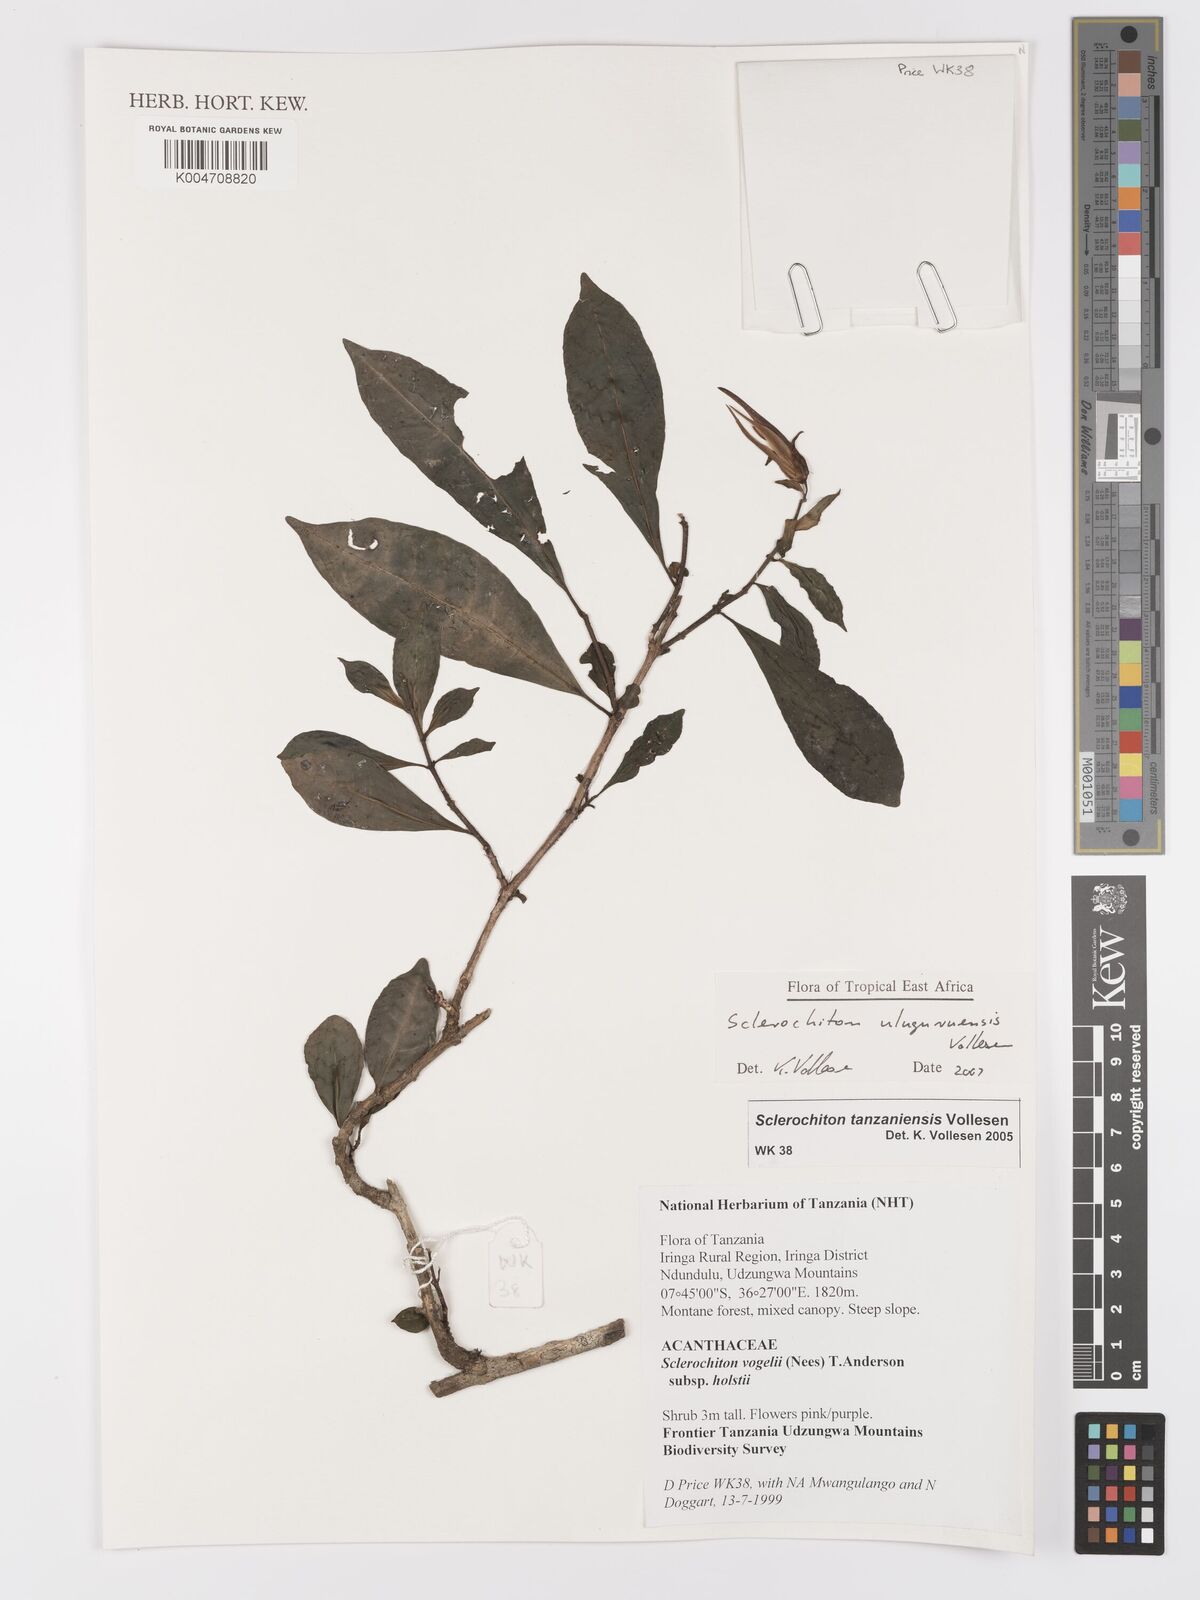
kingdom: Plantae
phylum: Tracheophyta
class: Magnoliopsida
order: Lamiales
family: Acanthaceae
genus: Sclerochiton
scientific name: Sclerochiton uluguruensis
